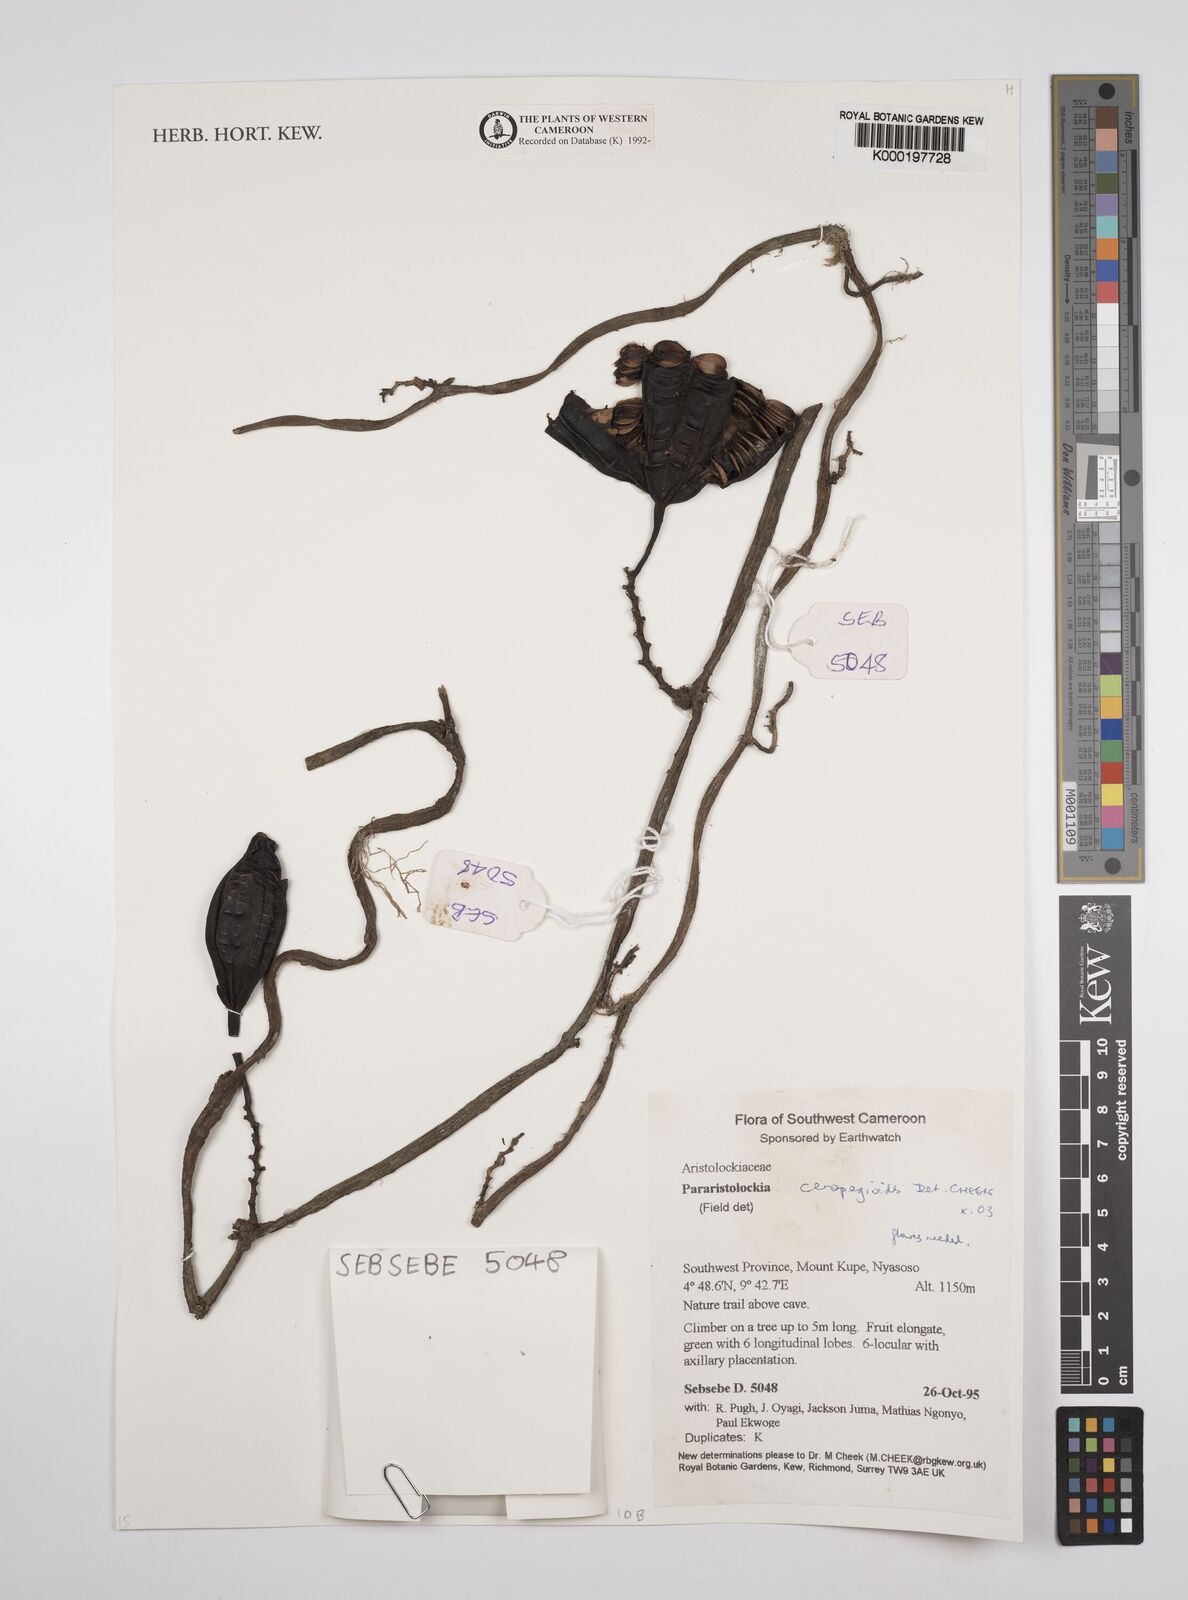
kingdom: Plantae
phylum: Tracheophyta
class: Magnoliopsida
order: Piperales
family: Aristolochiaceae
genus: Aristolochia
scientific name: Aristolochia ceropegioides
